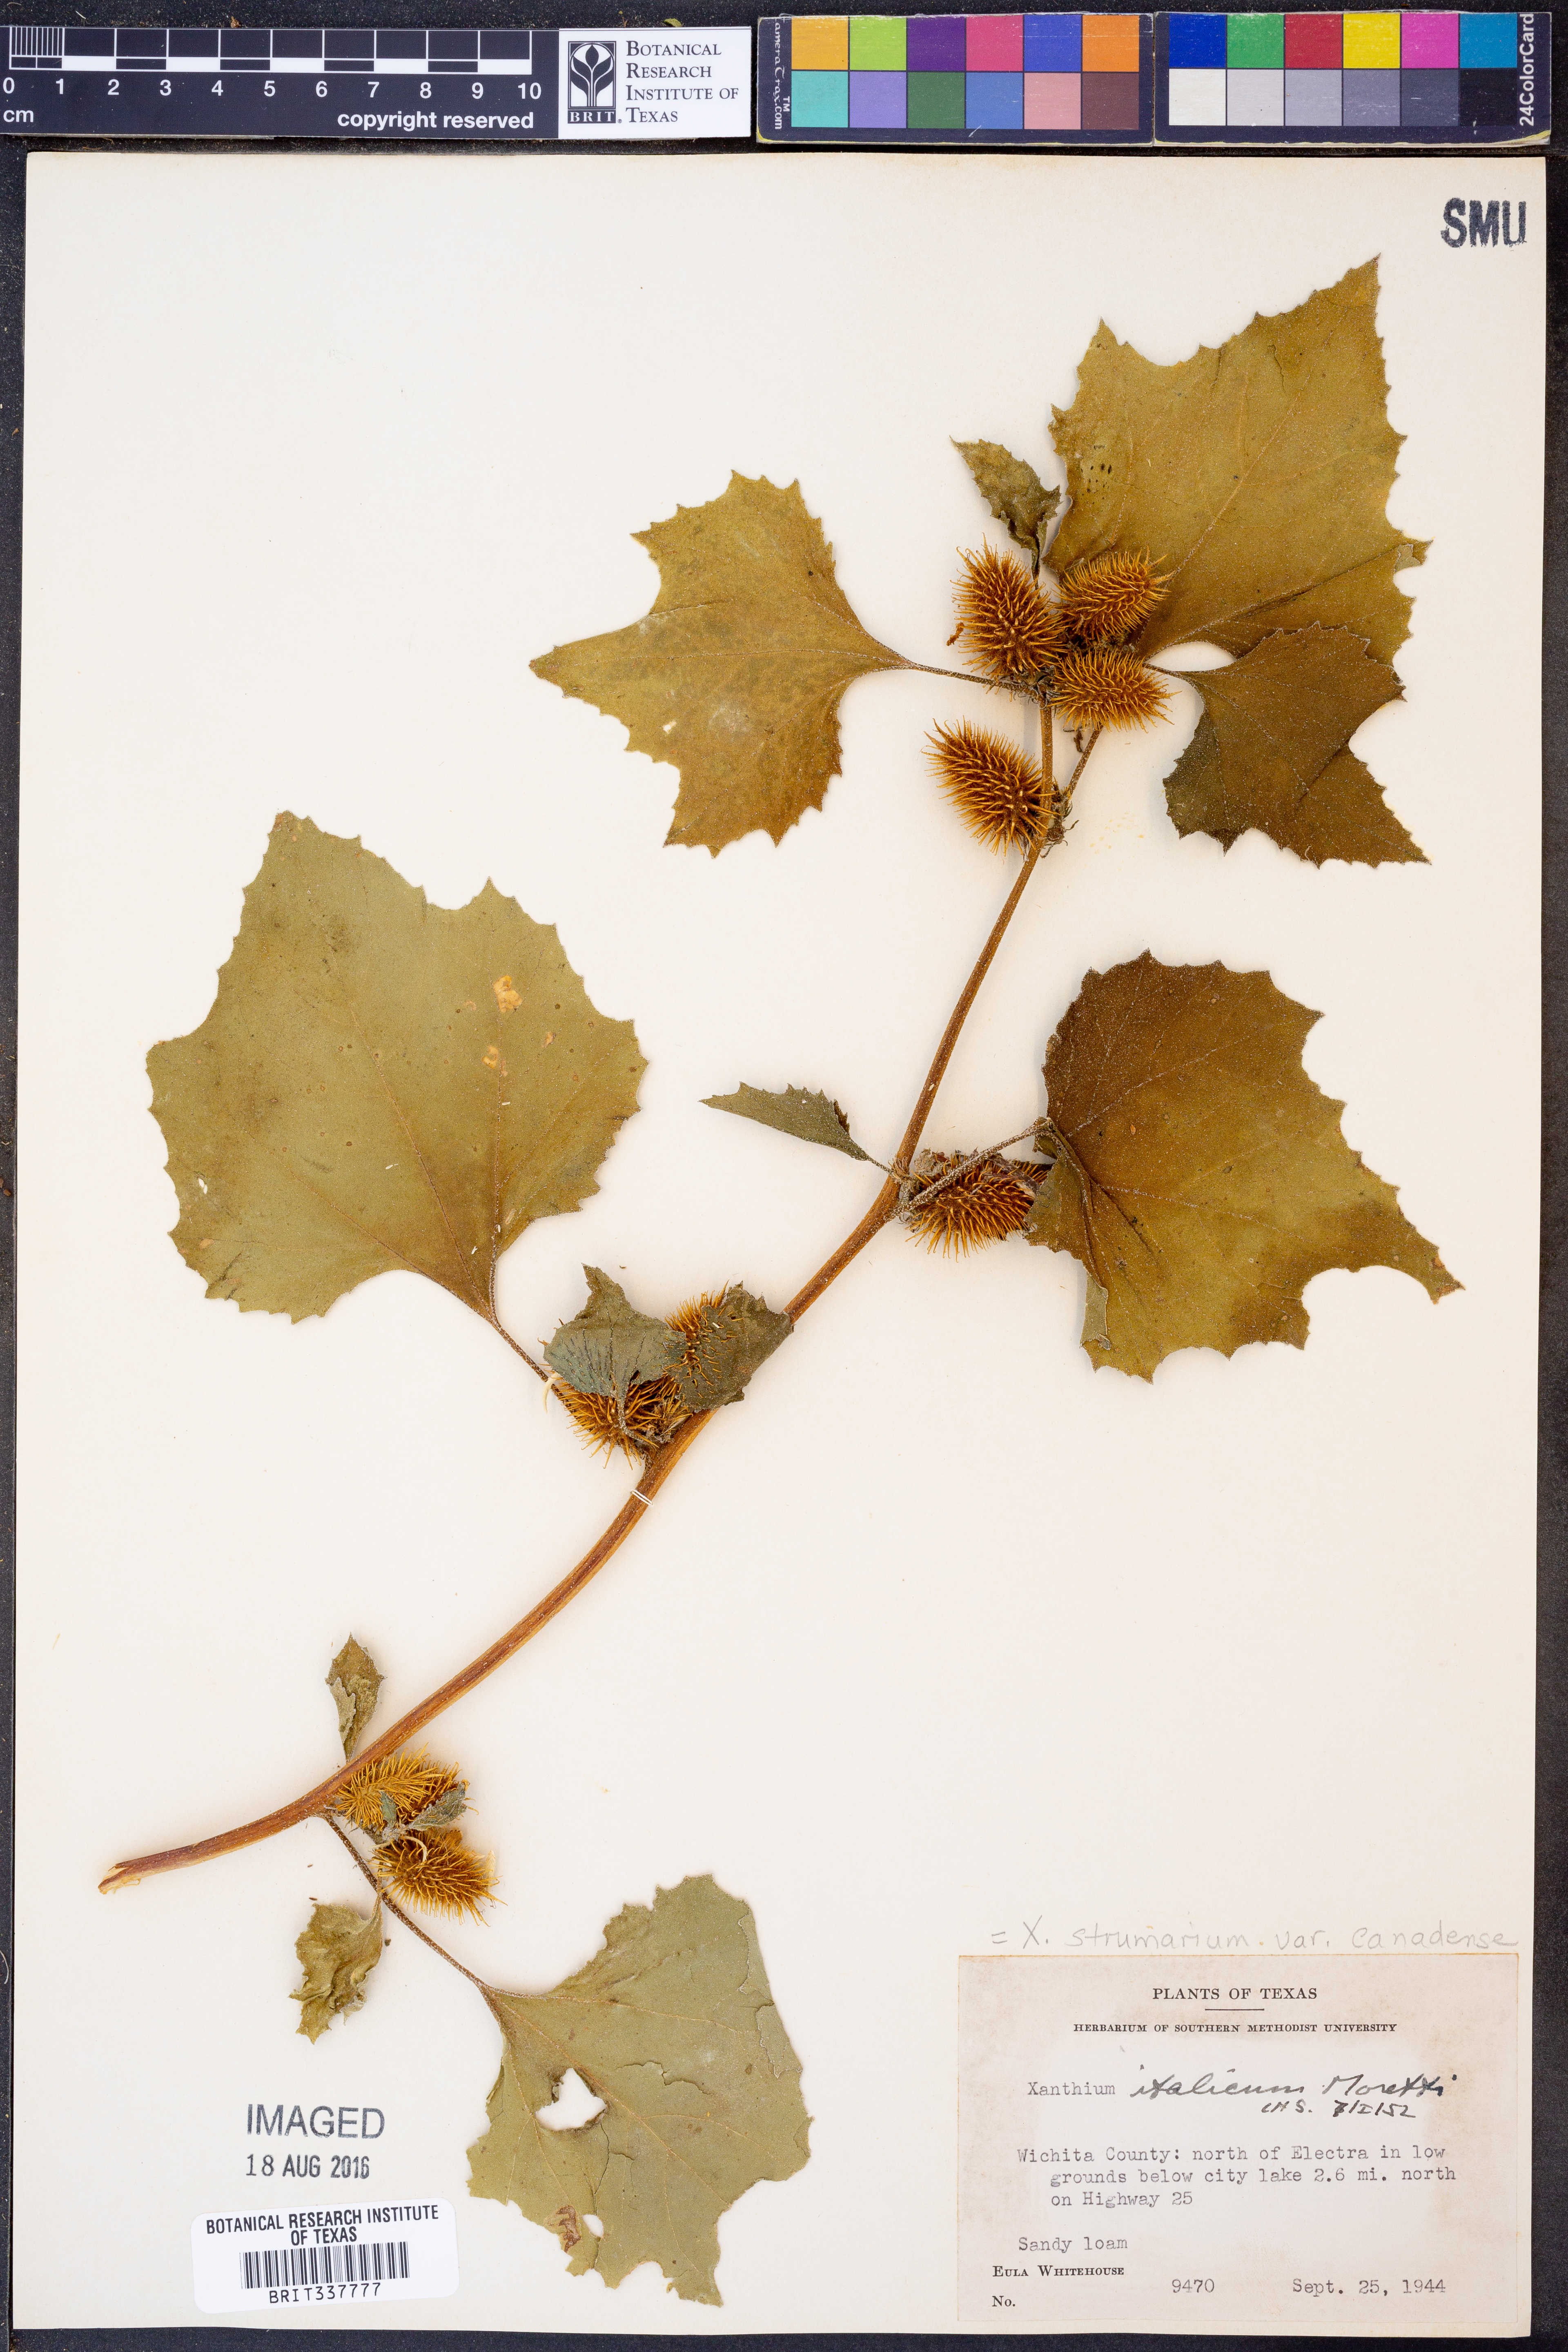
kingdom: Plantae
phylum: Tracheophyta
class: Magnoliopsida
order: Asterales
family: Asteraceae
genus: Xanthium
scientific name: Xanthium orientale
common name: Californian burr
